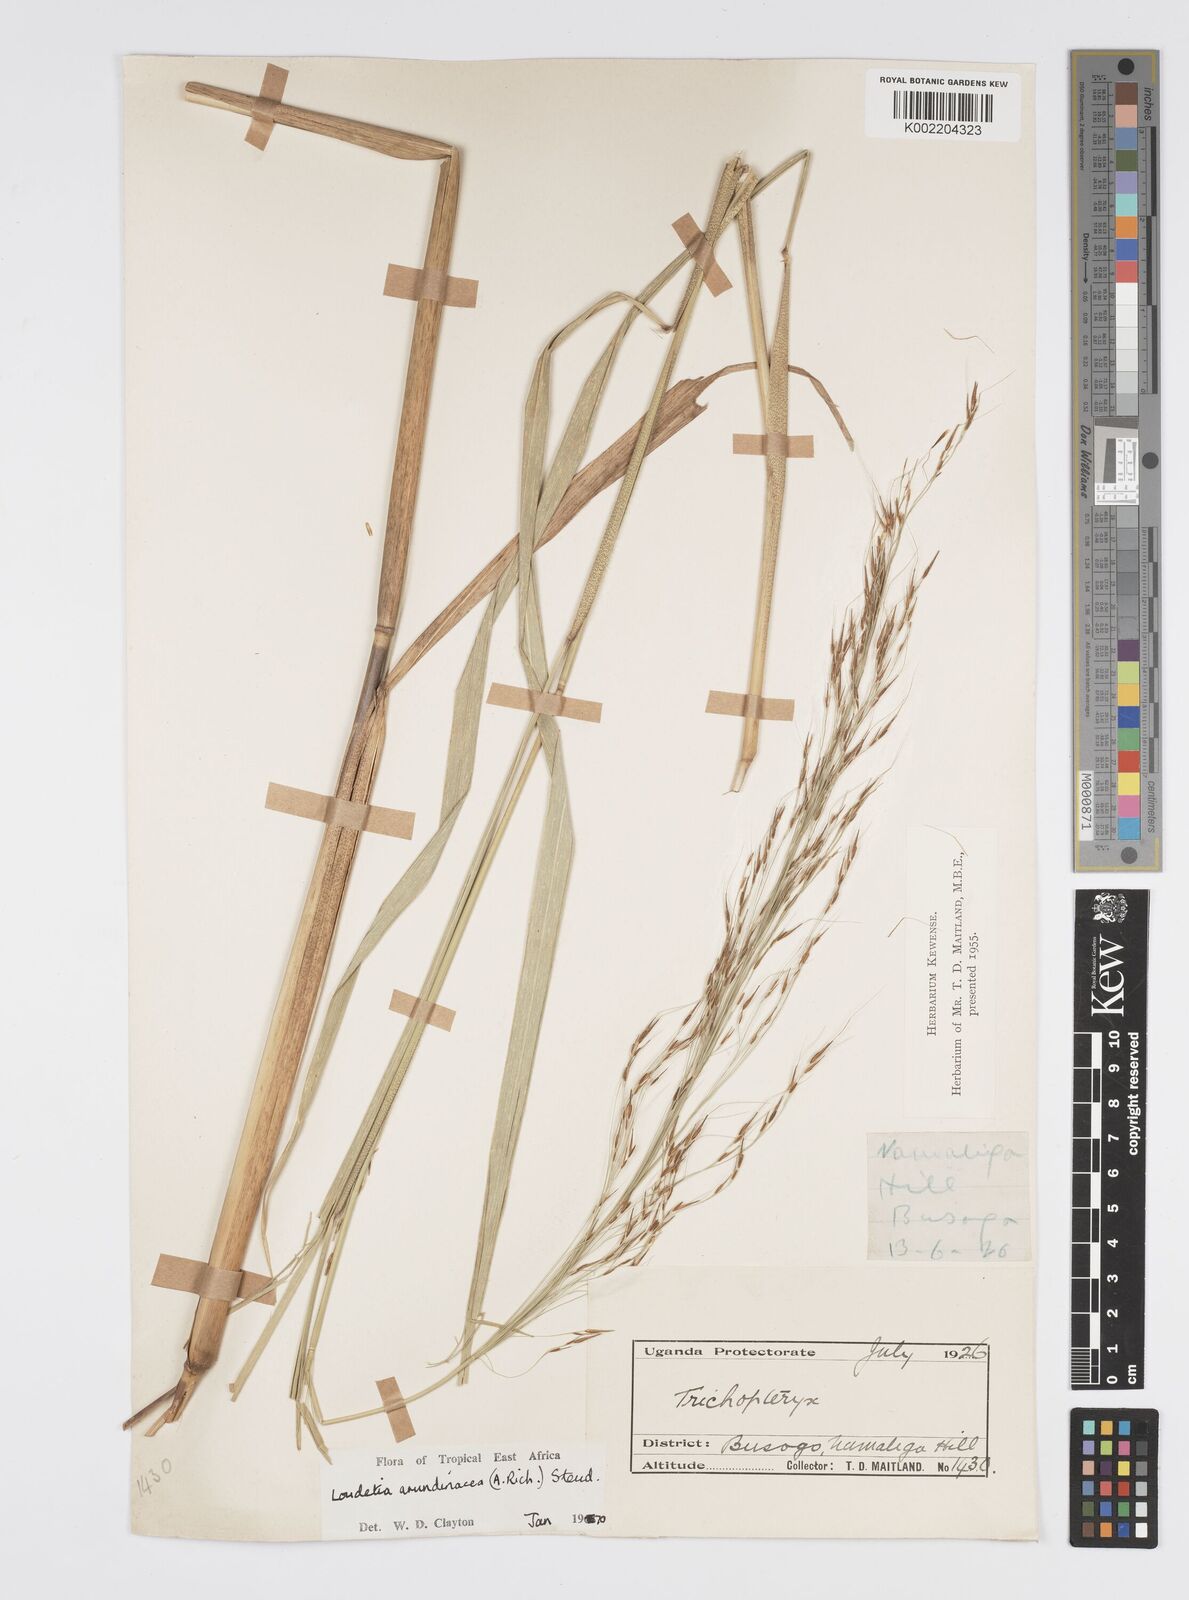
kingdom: Plantae
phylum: Tracheophyta
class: Liliopsida
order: Poales
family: Poaceae
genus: Loudetia
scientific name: Loudetia arundinacea
